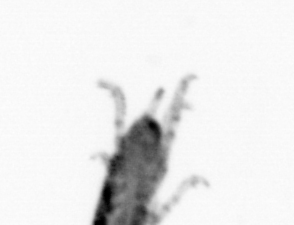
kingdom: Animalia
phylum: Arthropoda
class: Copepoda
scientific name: Copepoda
